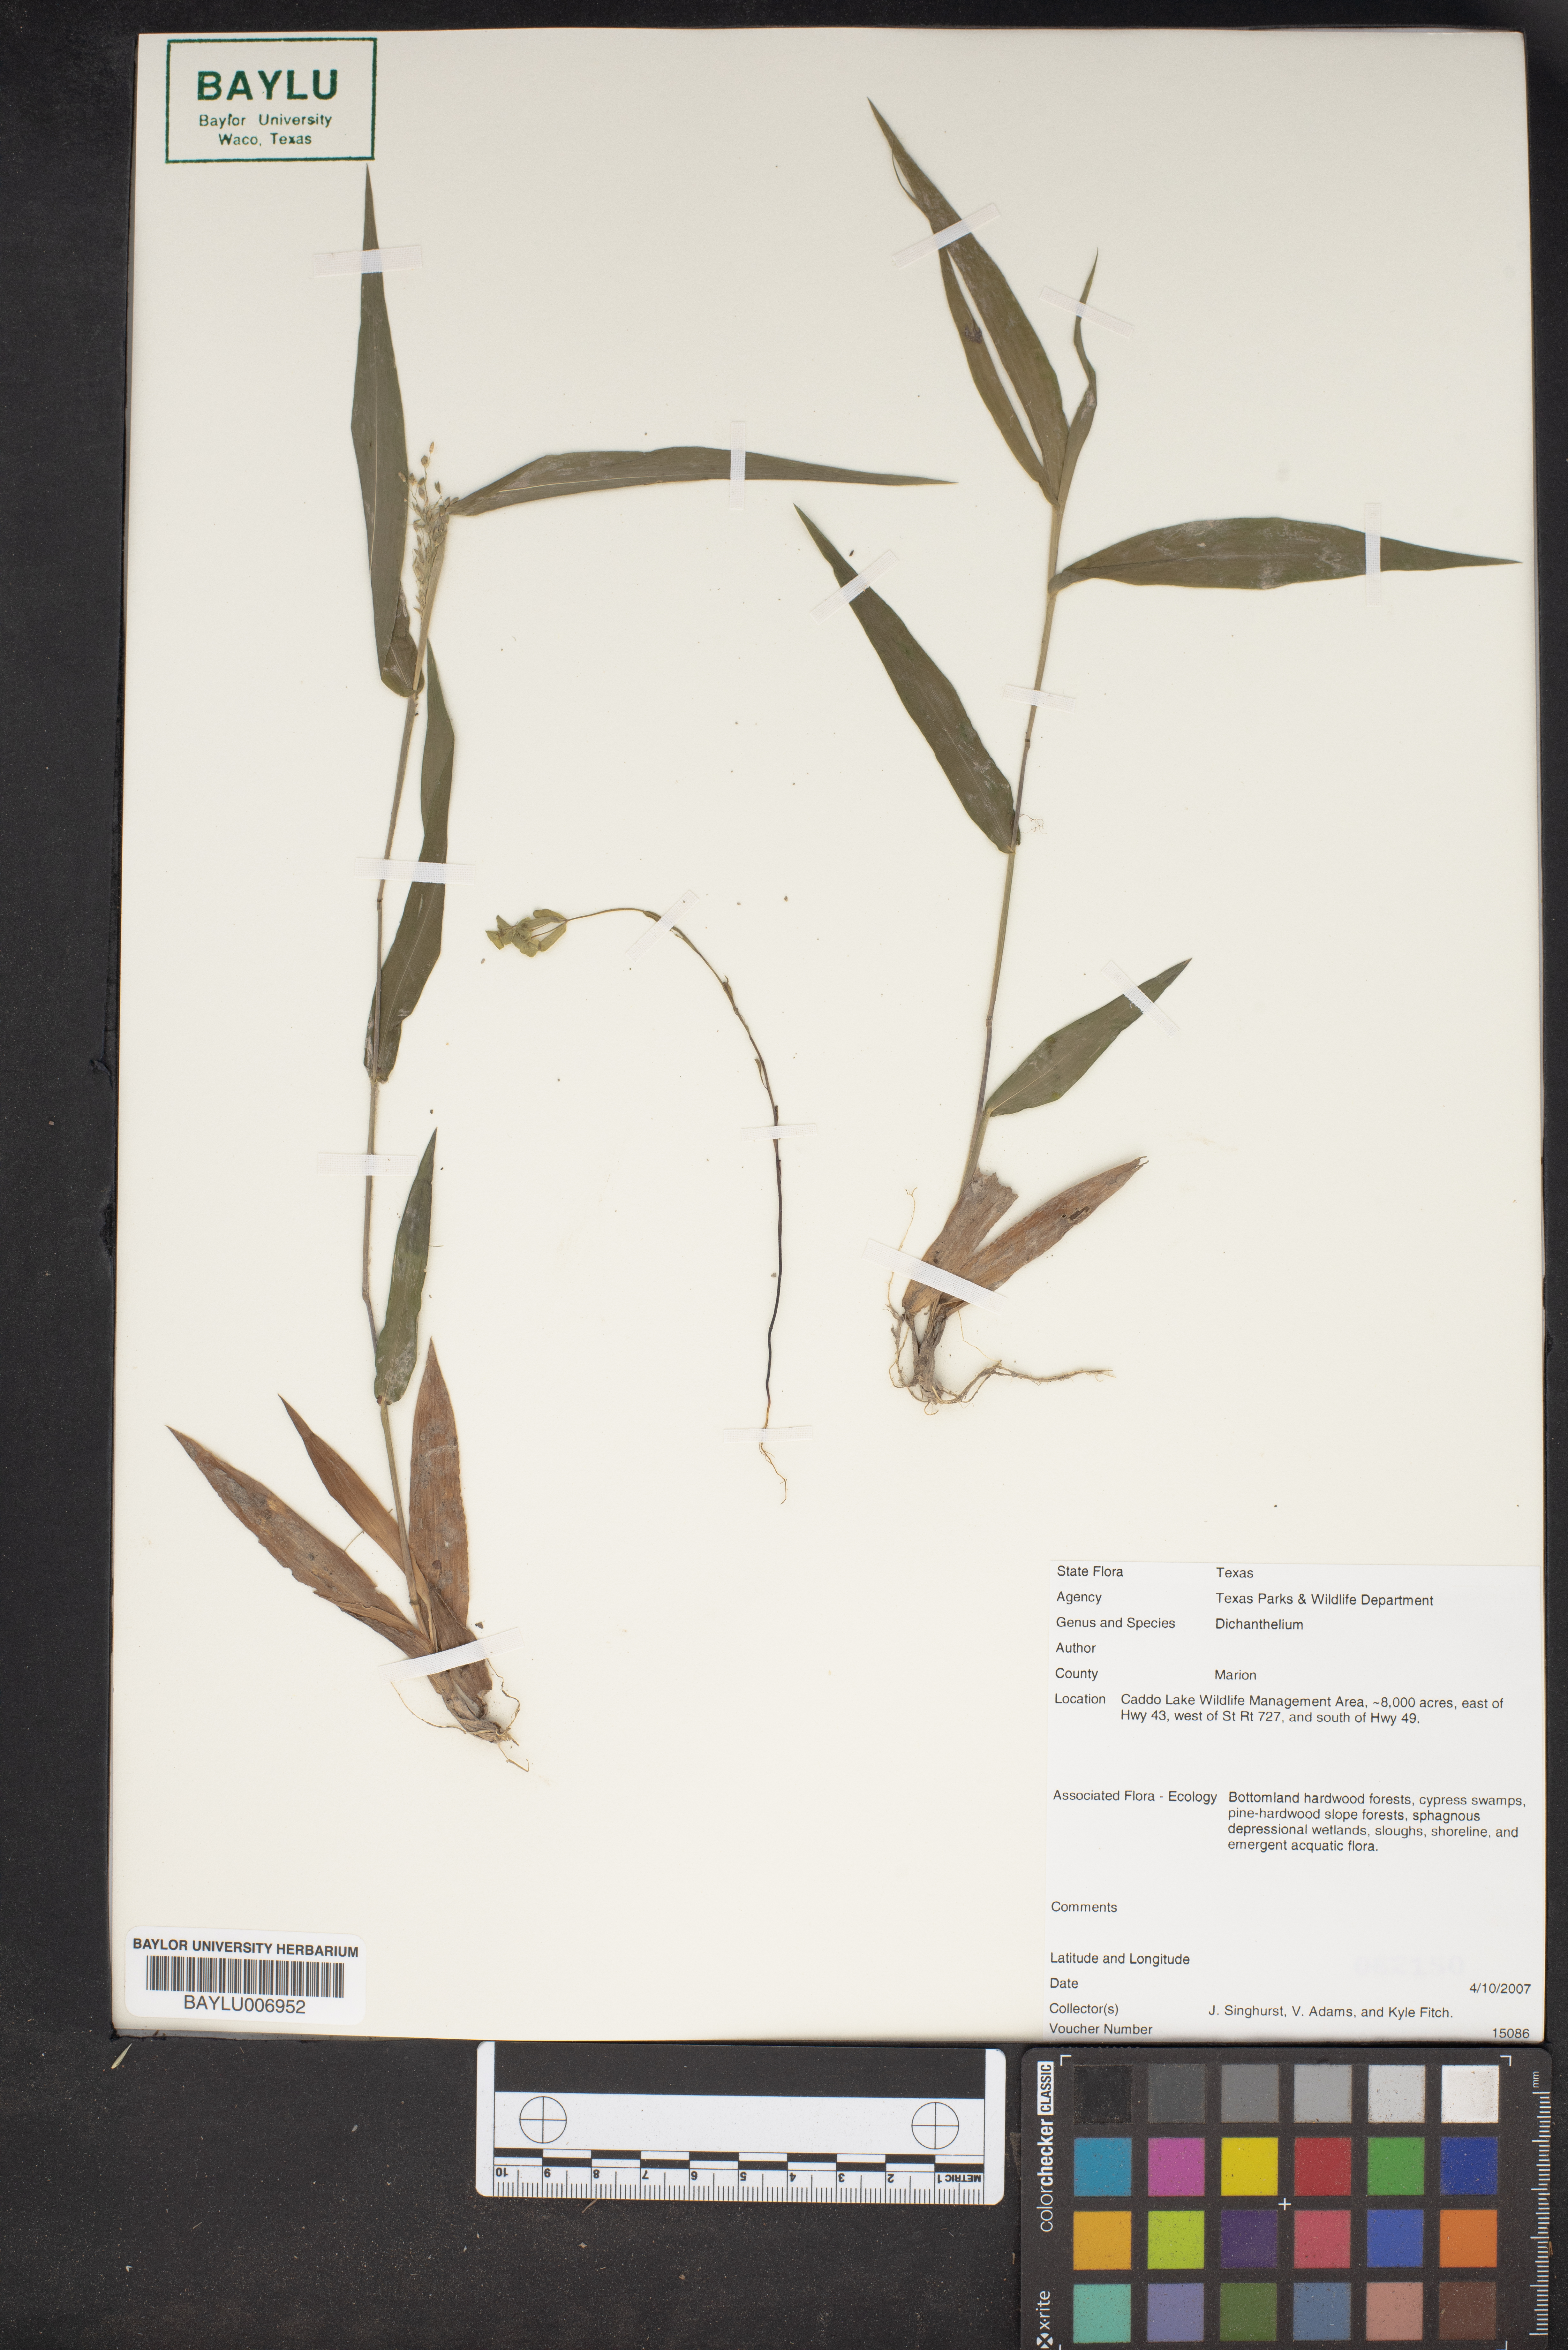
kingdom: Plantae
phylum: Tracheophyta
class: Liliopsida
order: Poales
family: Poaceae
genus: Dichanthelium
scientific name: Dichanthelium
